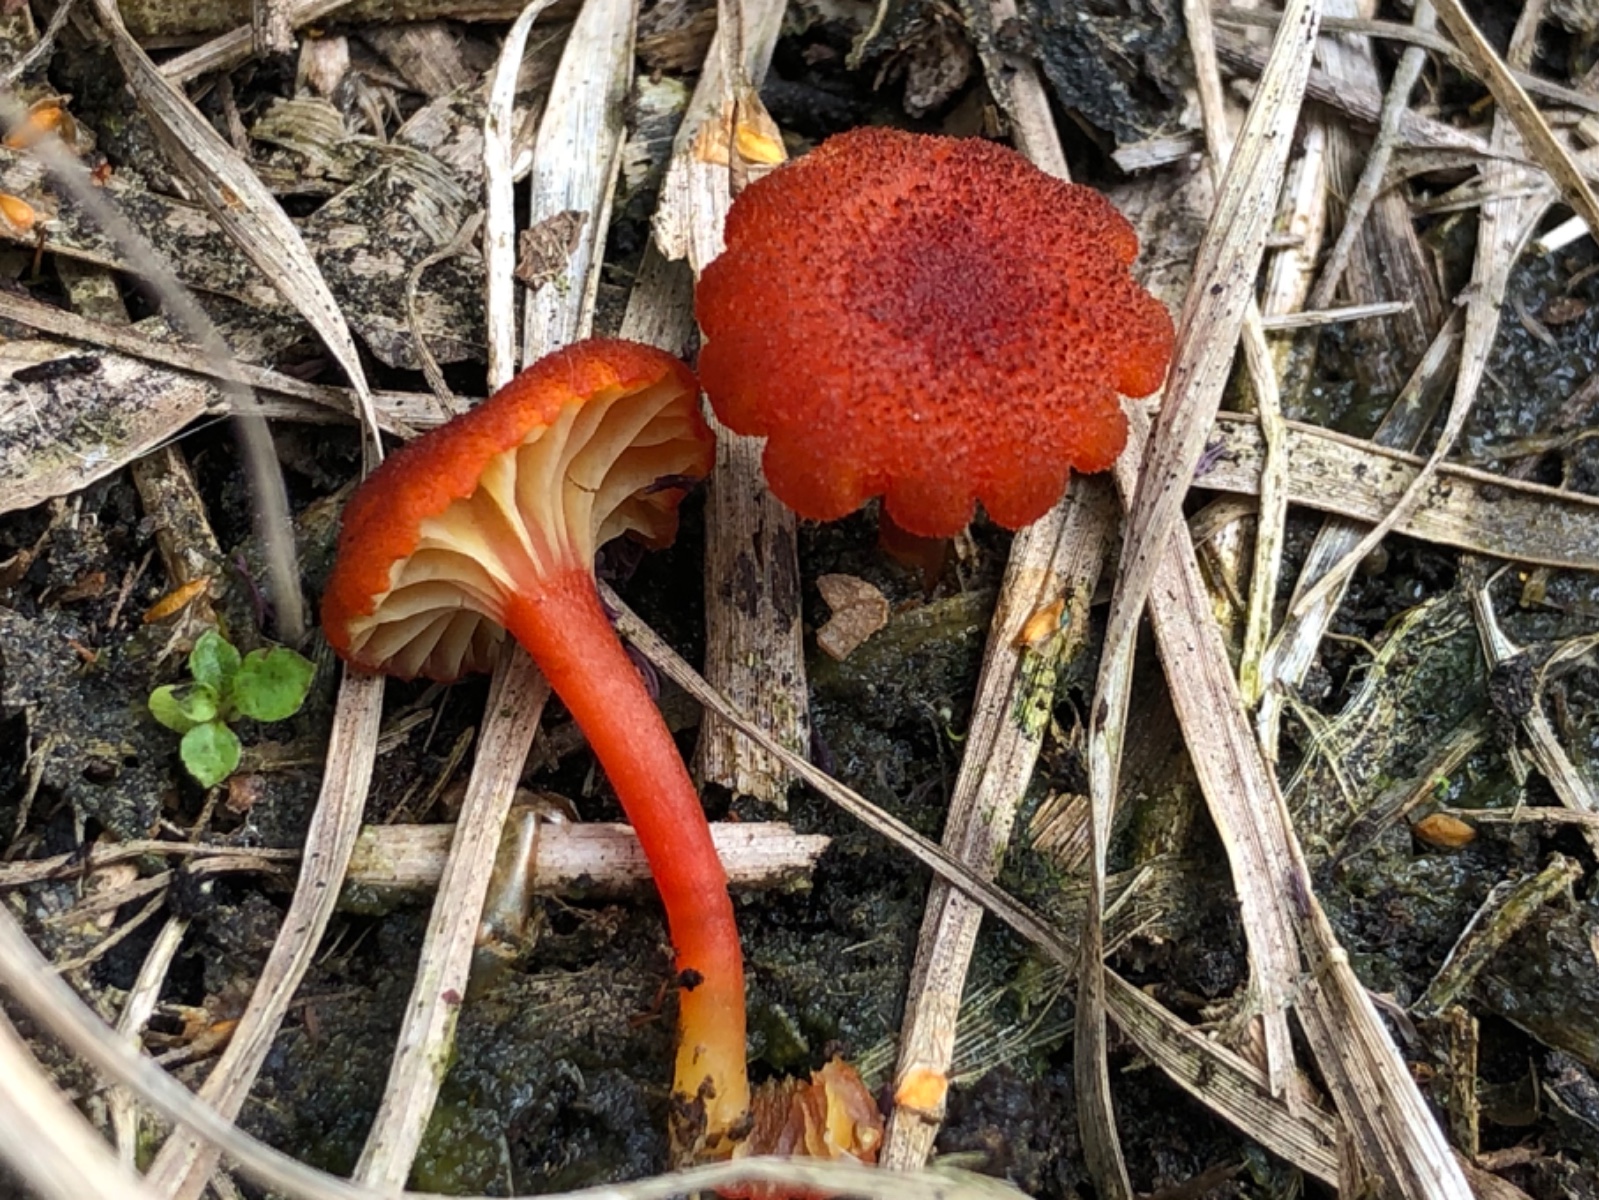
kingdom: Fungi
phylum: Basidiomycota
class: Agaricomycetes
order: Agaricales
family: Hygrophoraceae
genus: Hygrocybe
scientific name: Hygrocybe coccineocrenata
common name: tørvemos-vokshat
